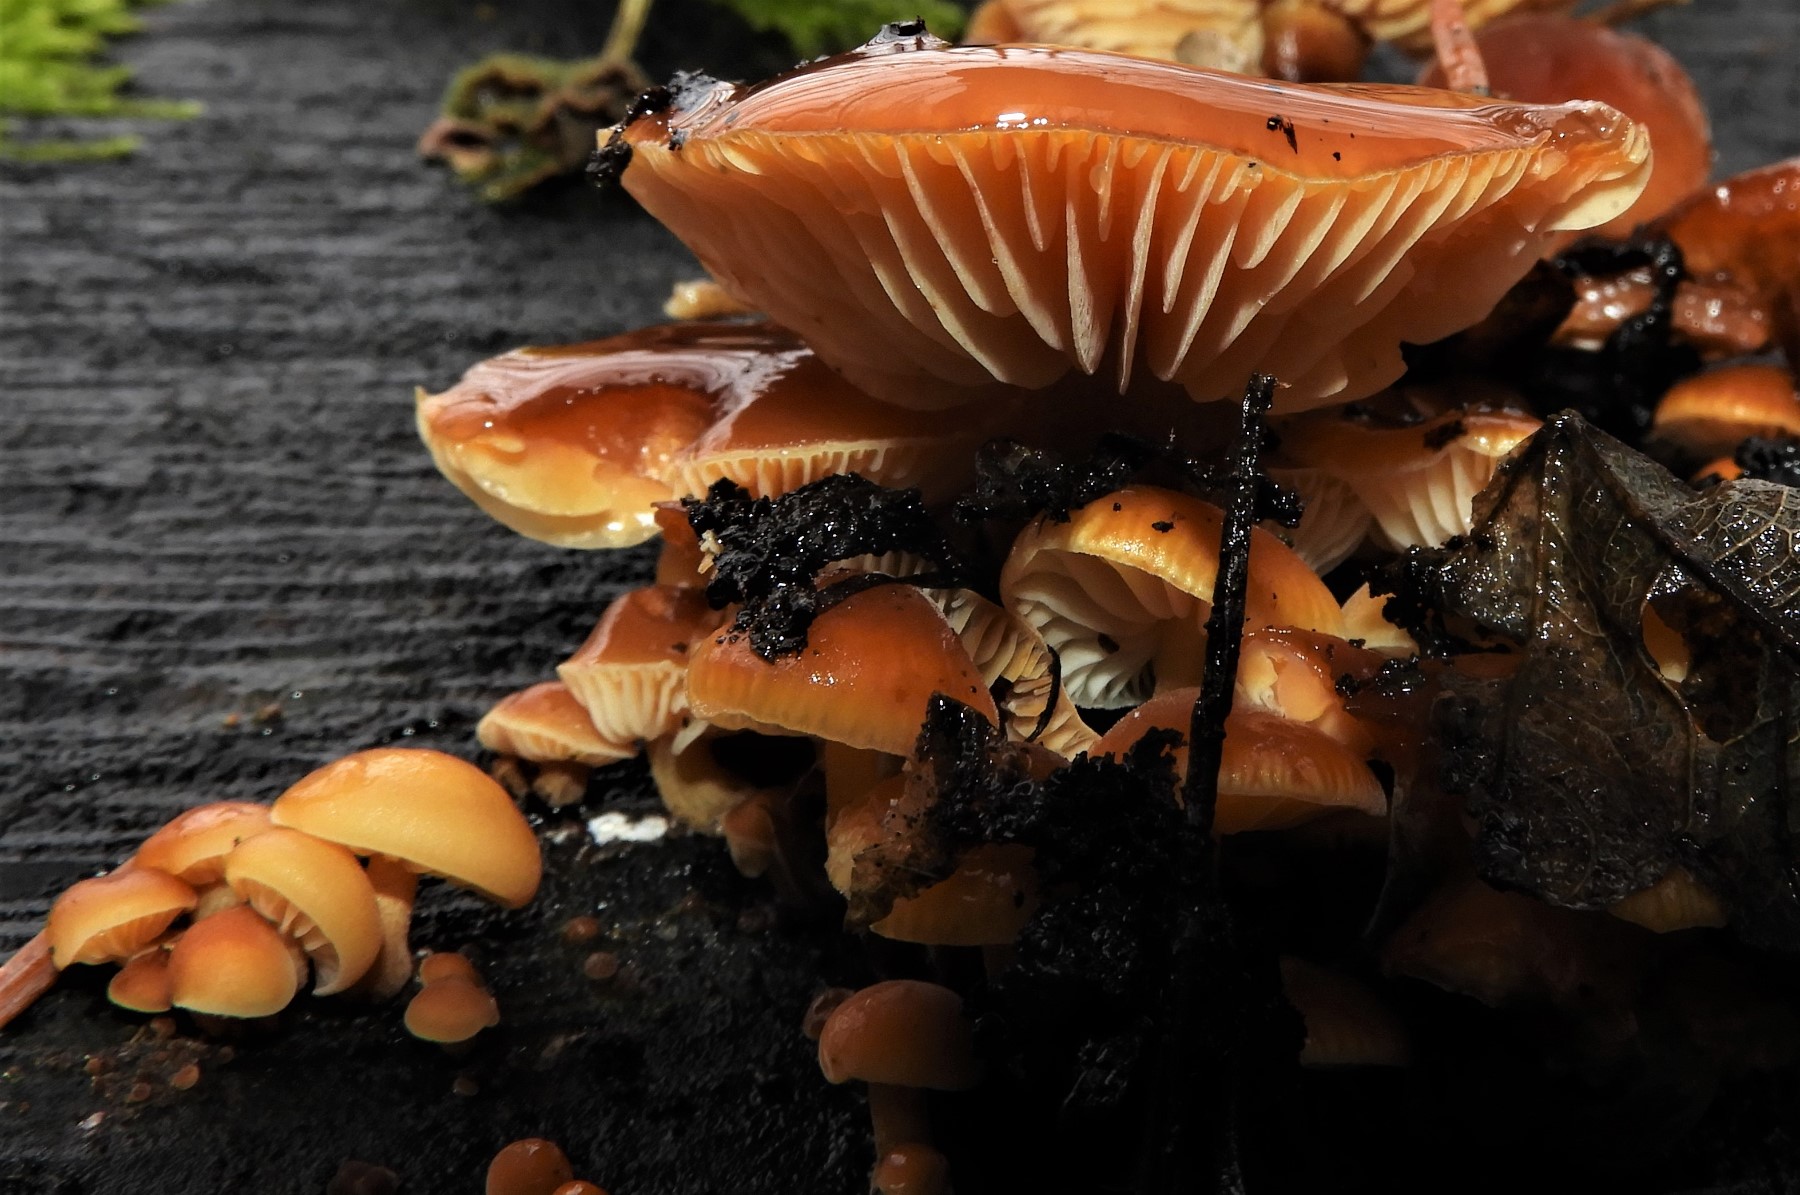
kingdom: Fungi
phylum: Basidiomycota
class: Agaricomycetes
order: Agaricales
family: Physalacriaceae
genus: Flammulina
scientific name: Flammulina
